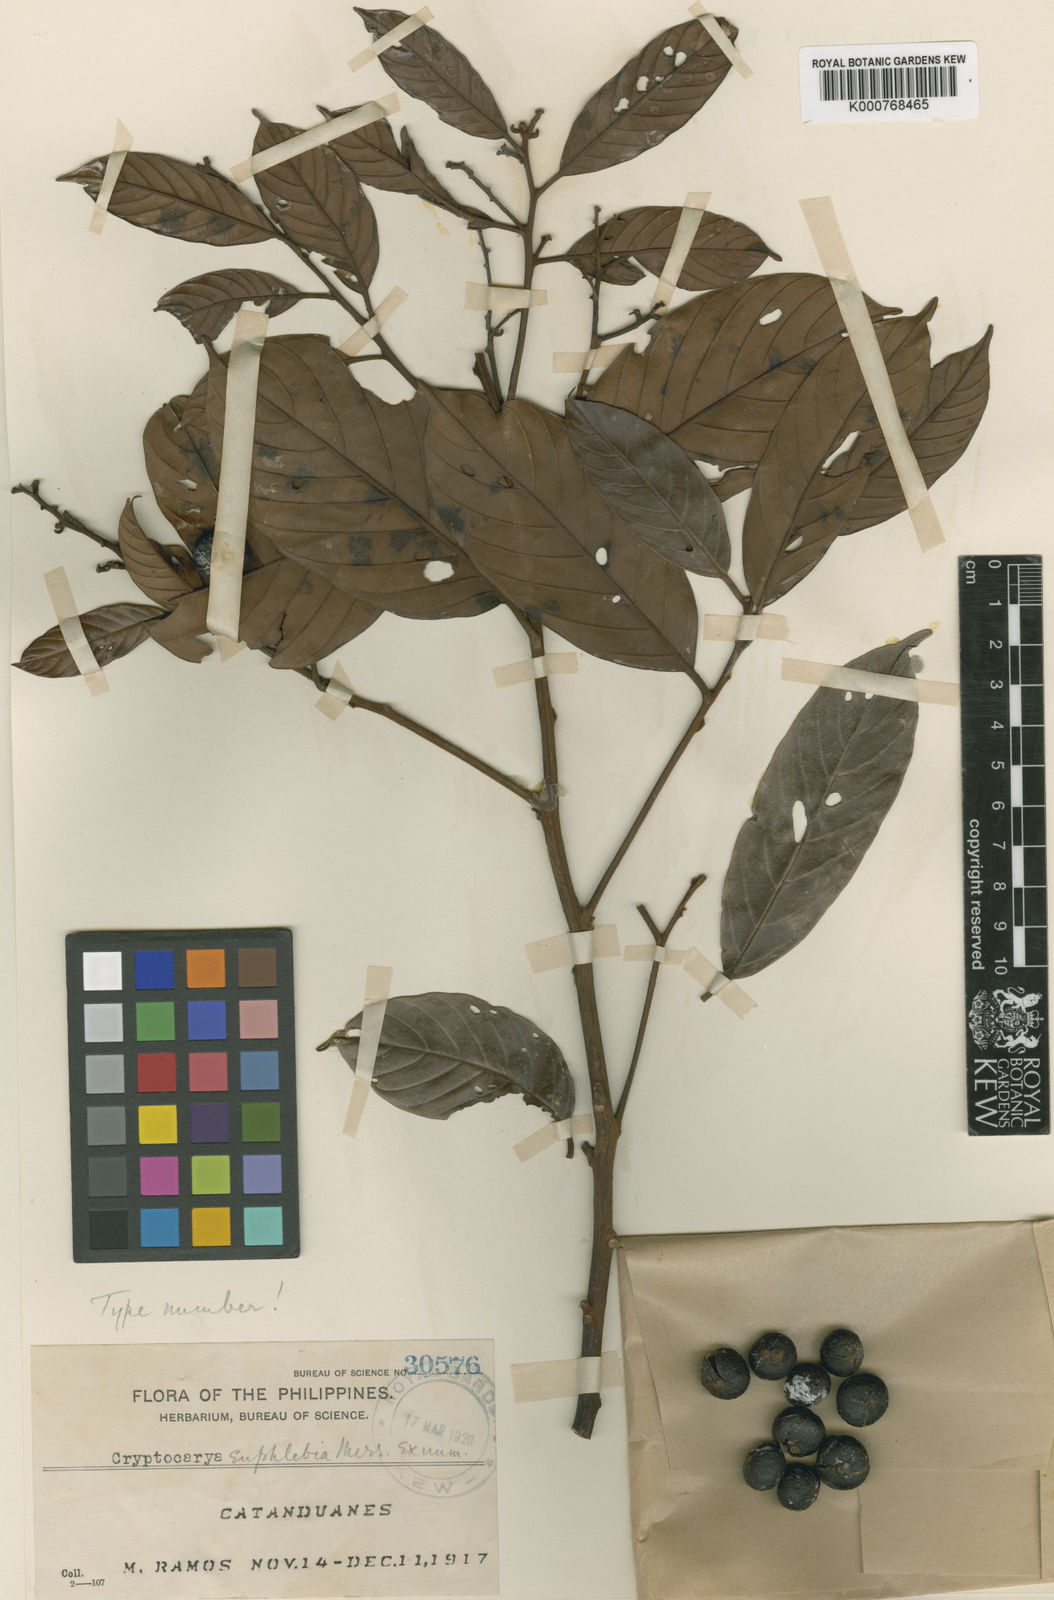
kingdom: Plantae
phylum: Tracheophyta
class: Magnoliopsida
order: Laurales
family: Lauraceae
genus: Cryptocarya
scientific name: Cryptocarya euphlebia
